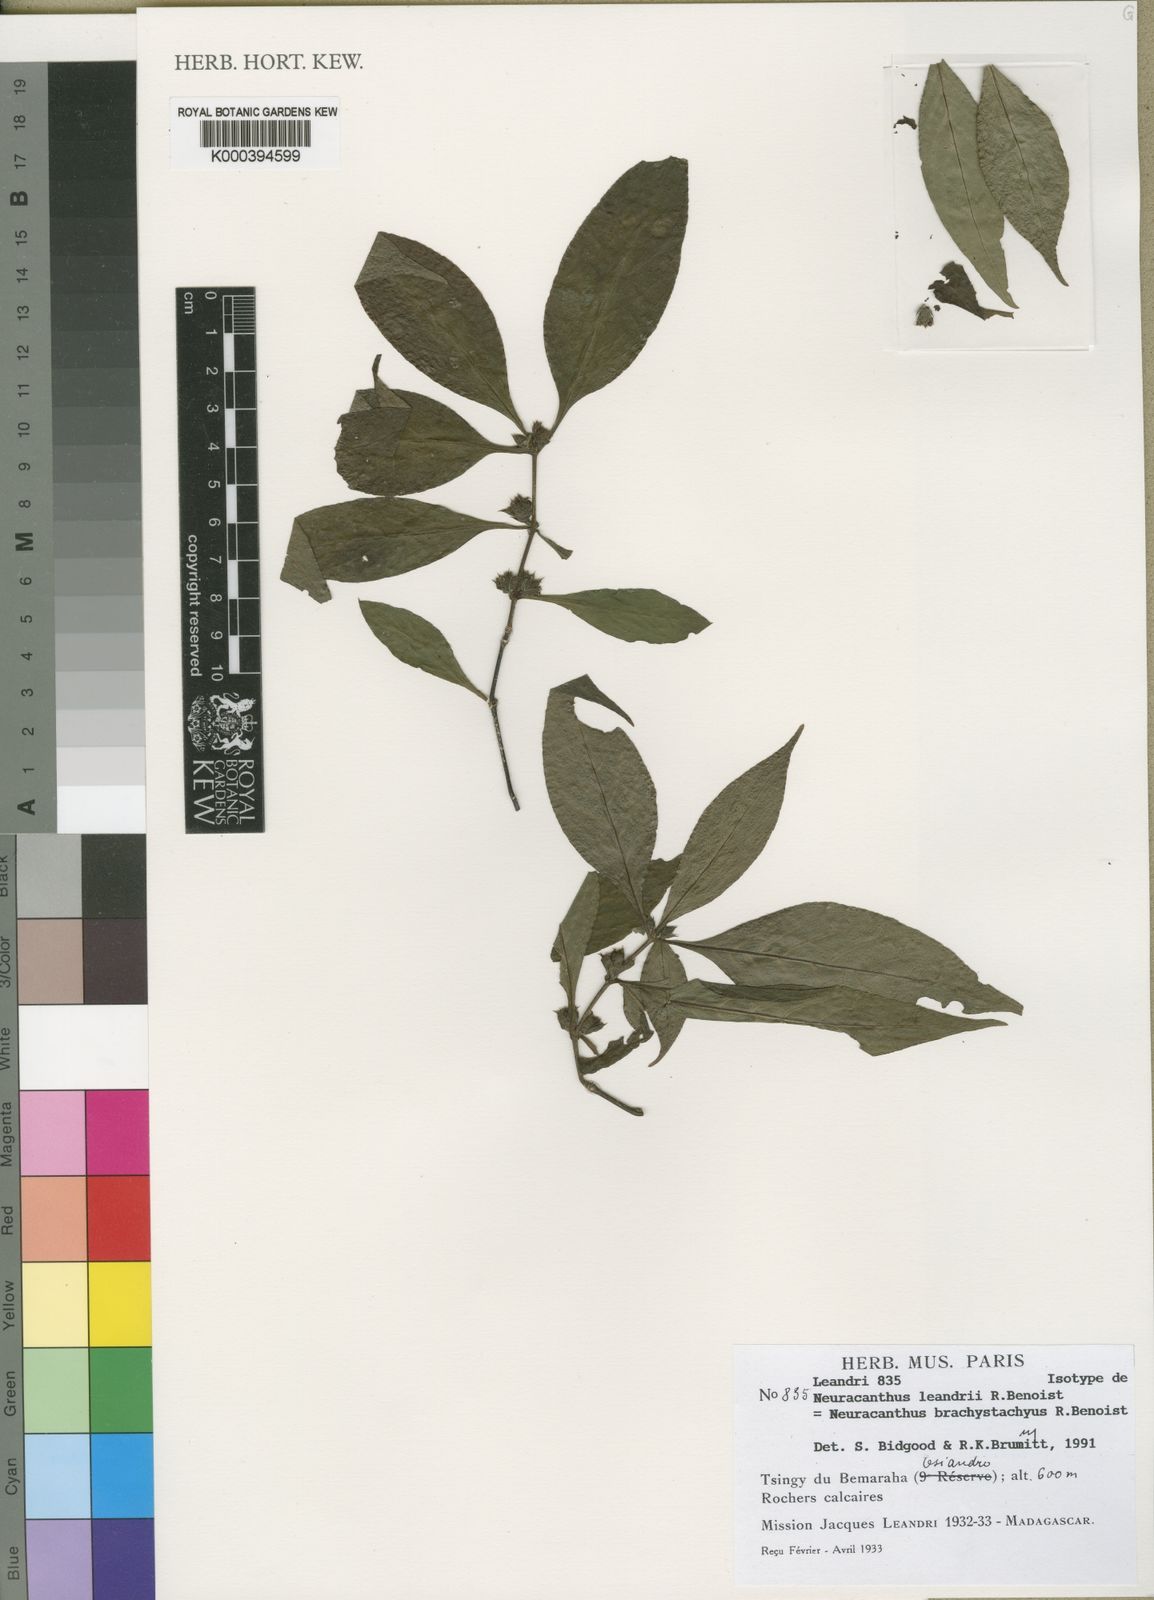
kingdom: Plantae
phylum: Tracheophyta
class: Magnoliopsida
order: Lamiales
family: Acanthaceae
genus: Neuracanthus
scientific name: Neuracanthus brachystachyus
